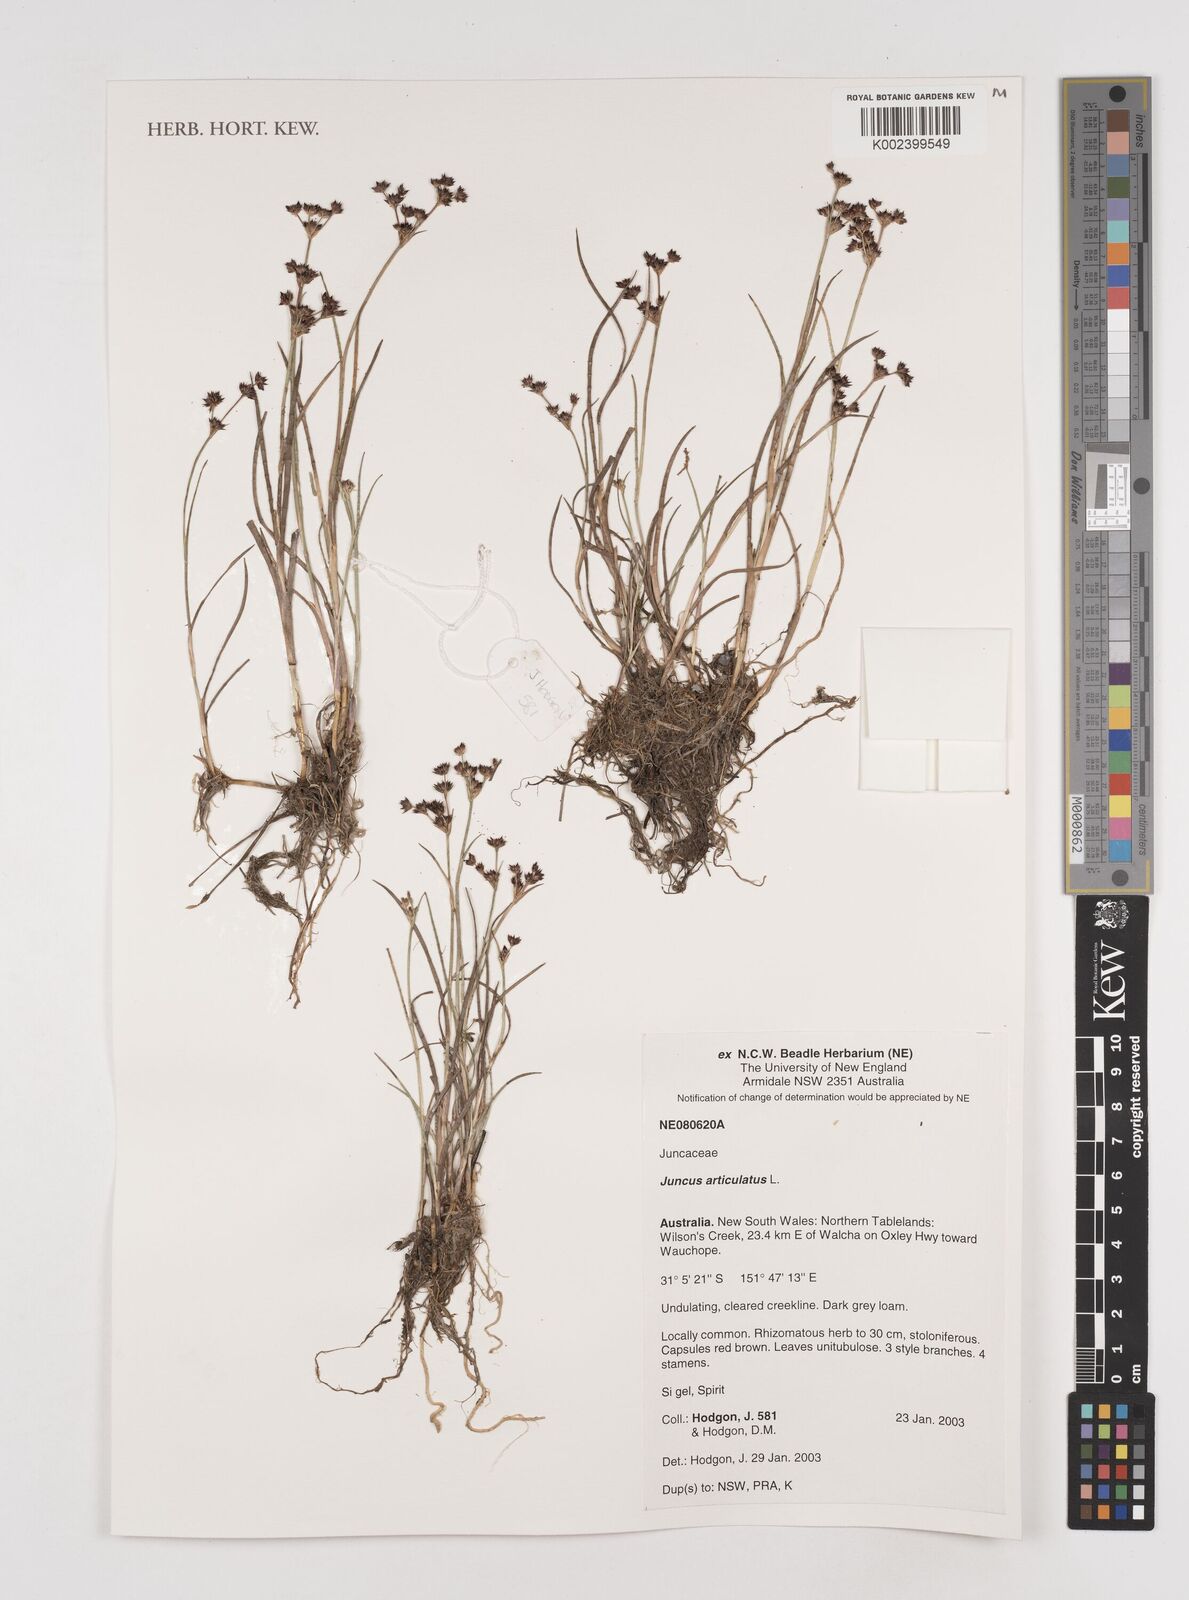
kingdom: Plantae
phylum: Tracheophyta
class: Liliopsida
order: Poales
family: Juncaceae
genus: Juncus
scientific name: Juncus articulatus
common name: Jointed rush
